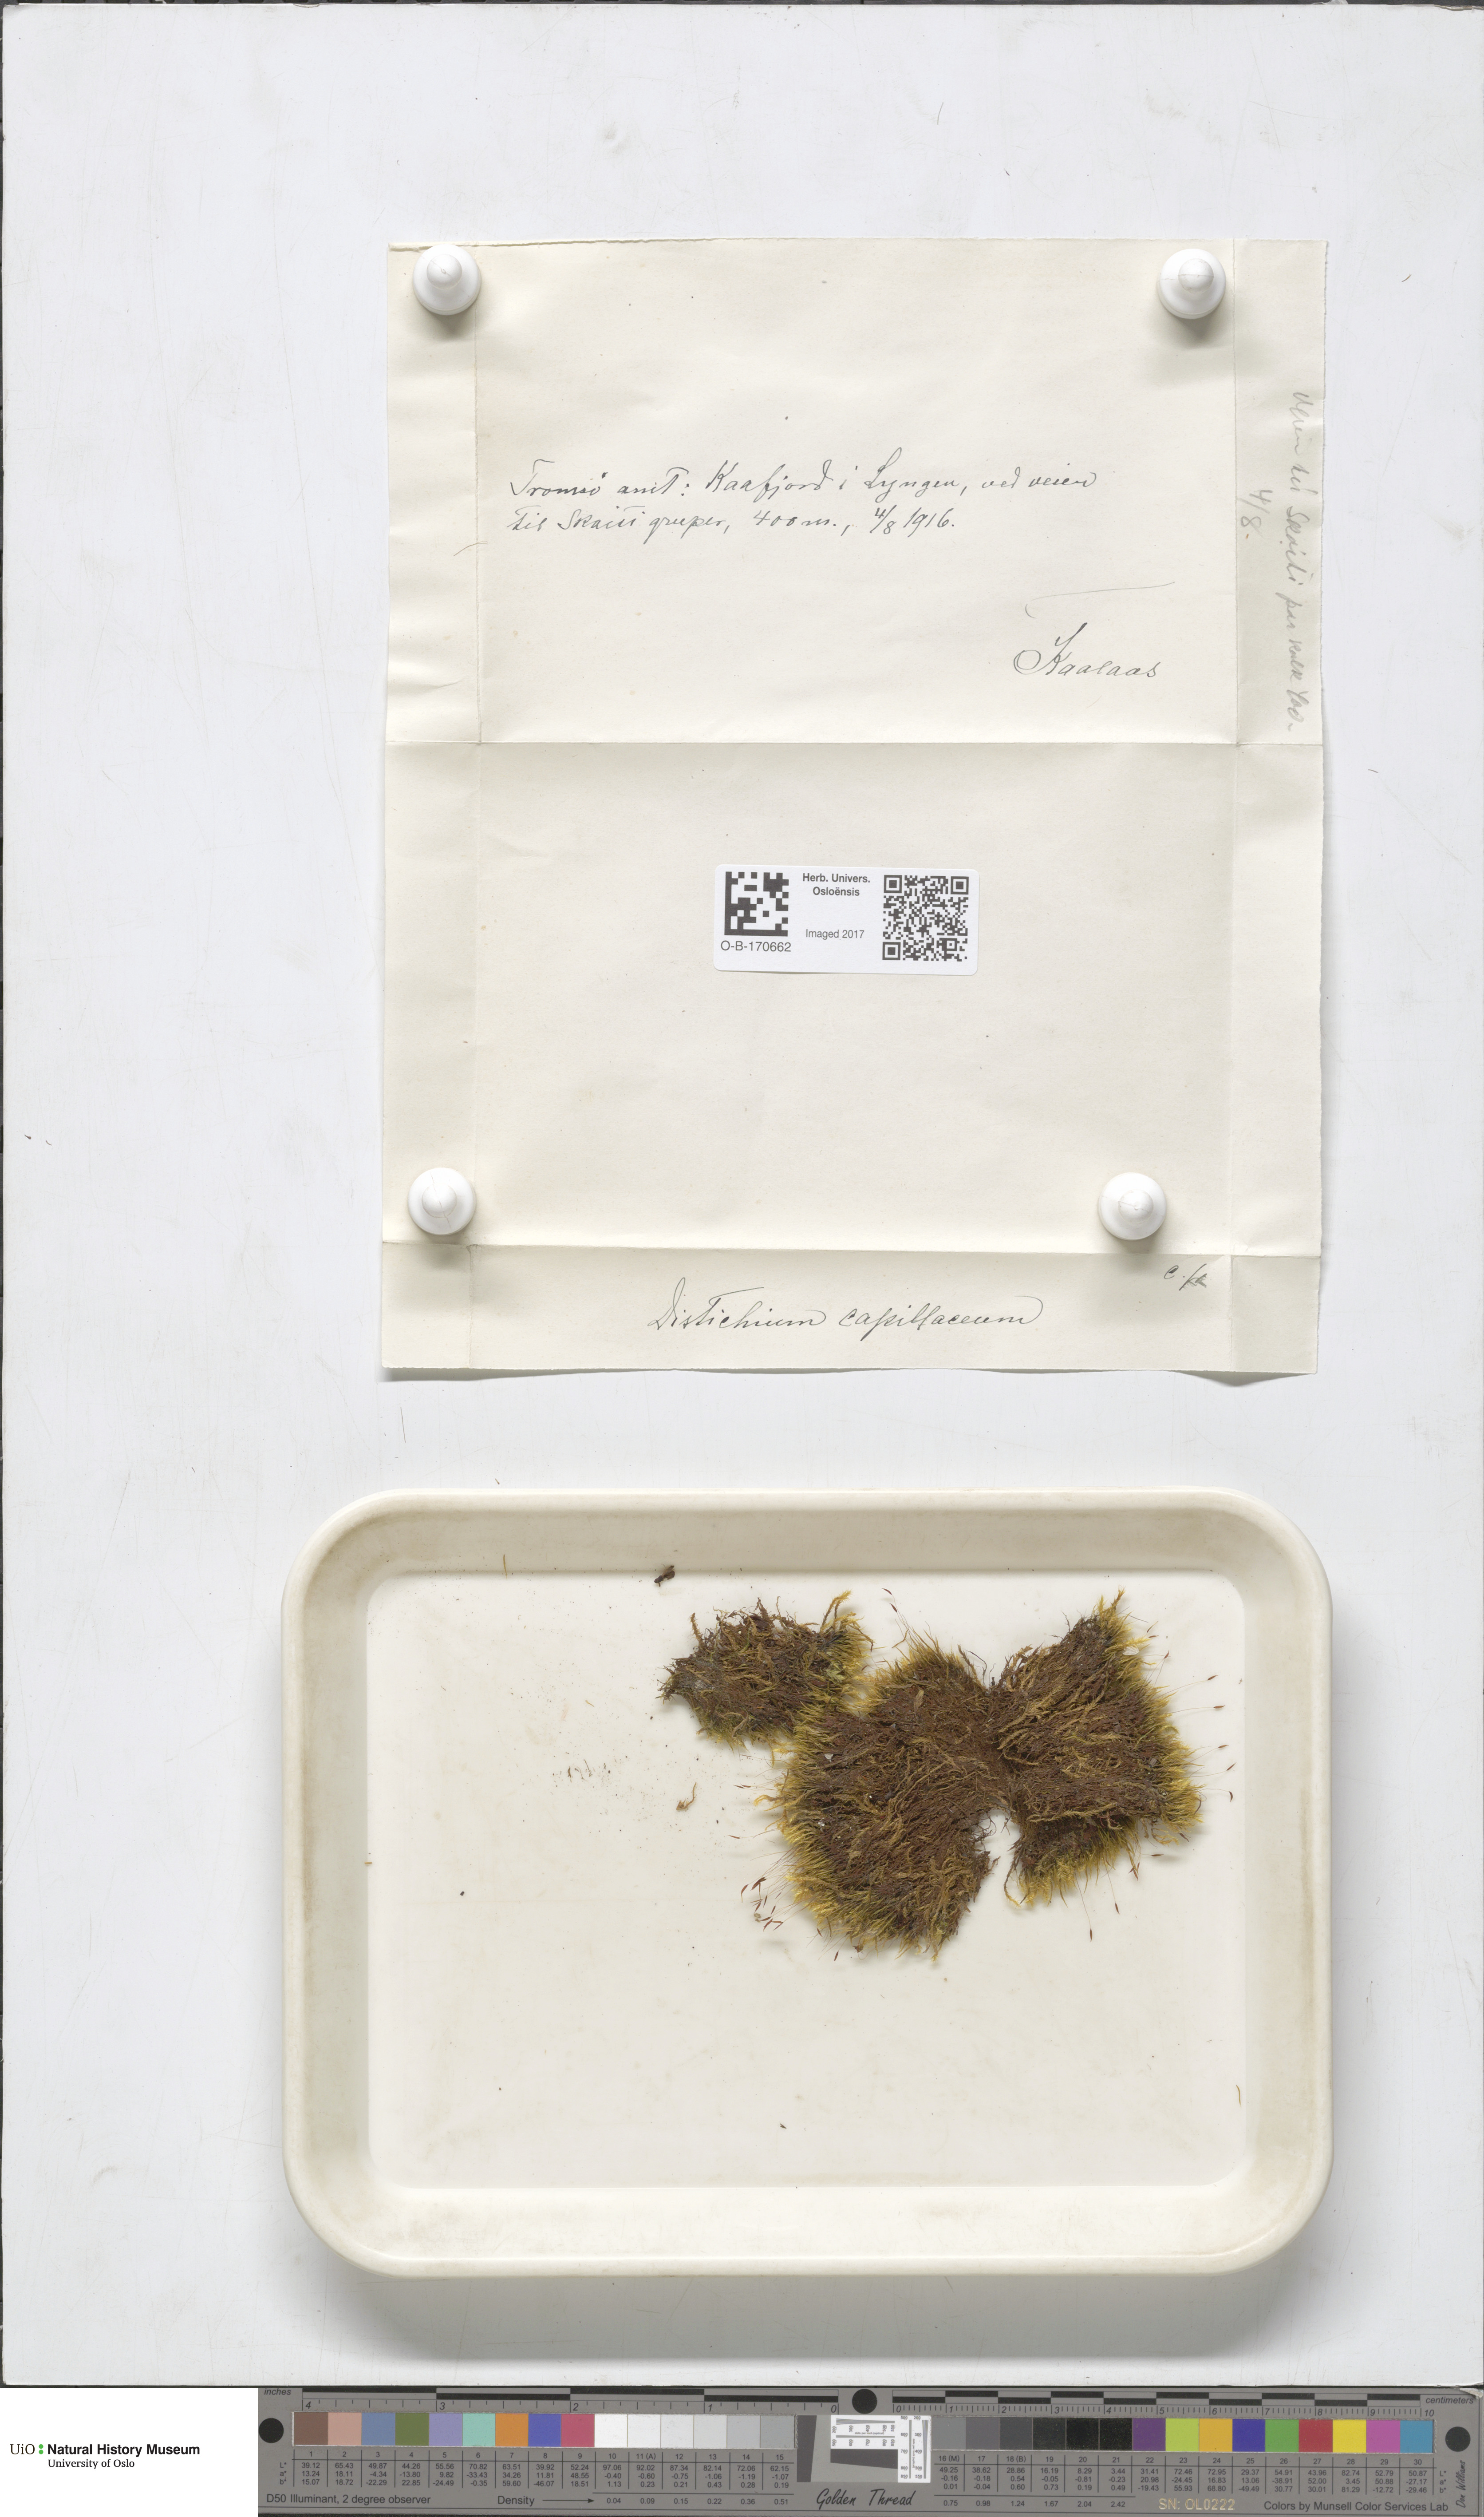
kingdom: Plantae
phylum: Bryophyta
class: Bryopsida
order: Scouleriales
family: Distichiaceae
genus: Distichium
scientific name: Distichium capillaceum
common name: Erect-fruited iris moss
